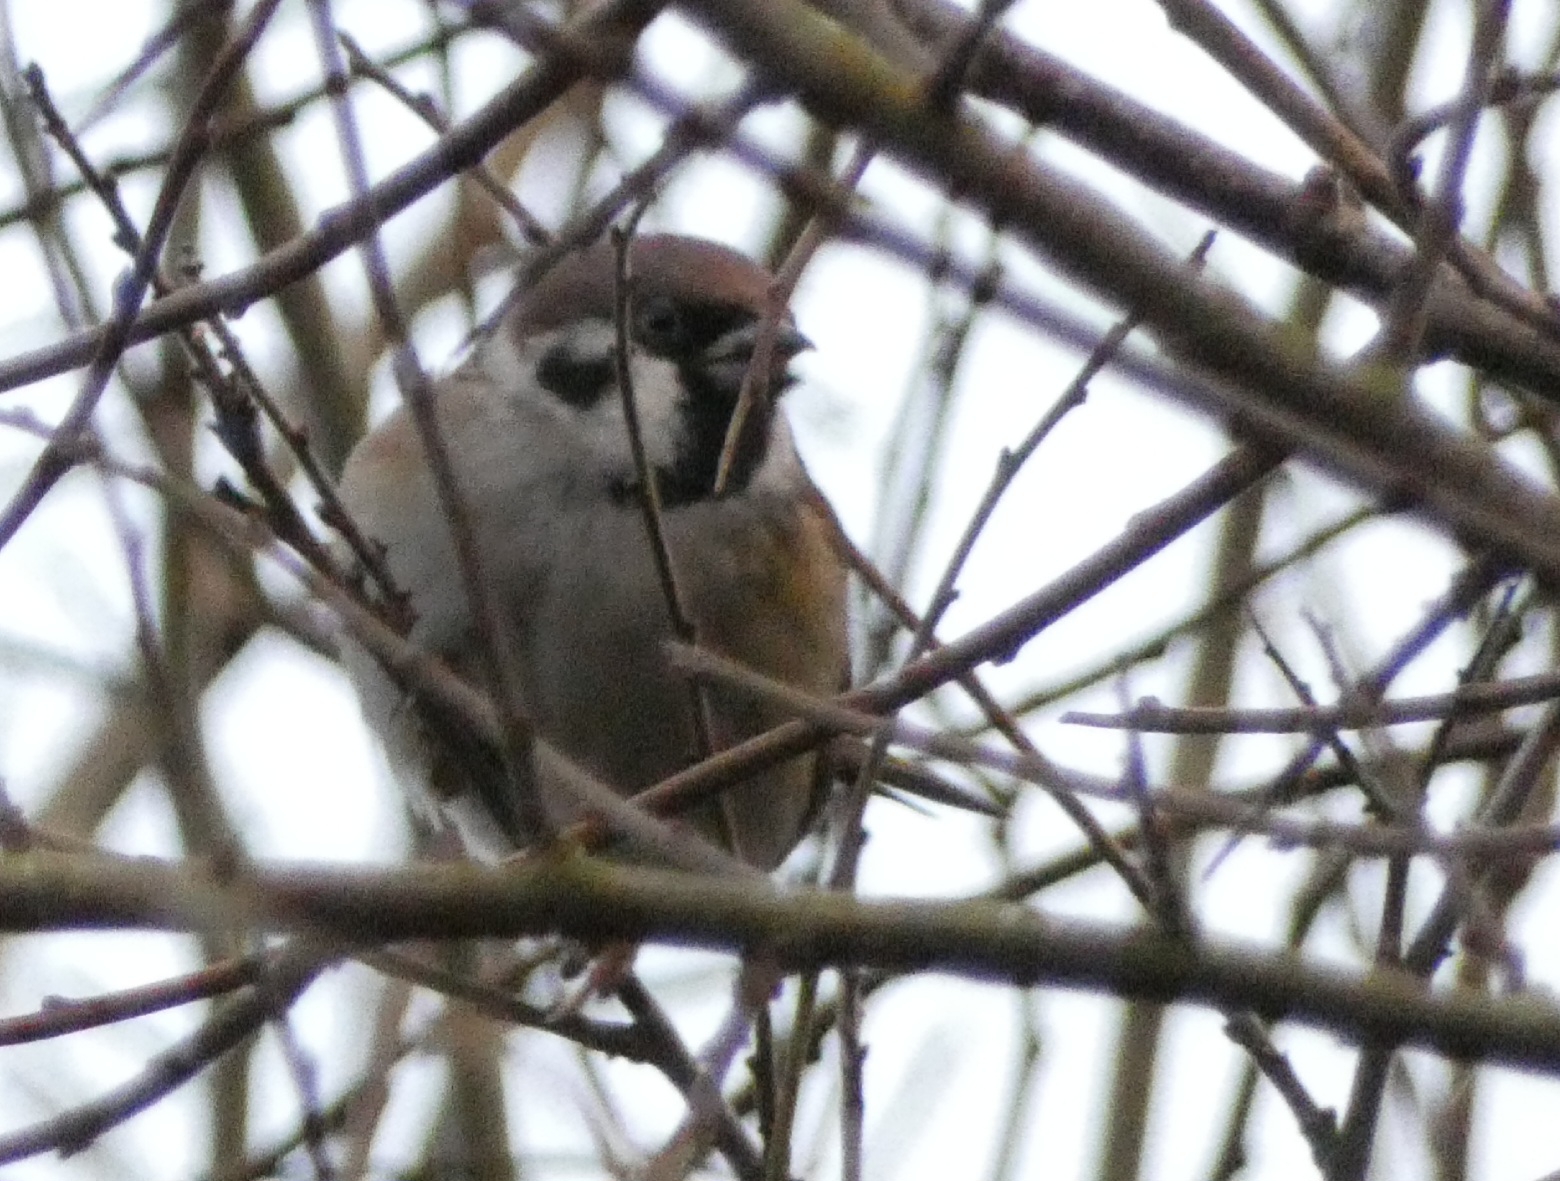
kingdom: Animalia
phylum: Chordata
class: Aves
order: Passeriformes
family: Passeridae
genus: Passer
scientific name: Passer montanus
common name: Skovspurv
